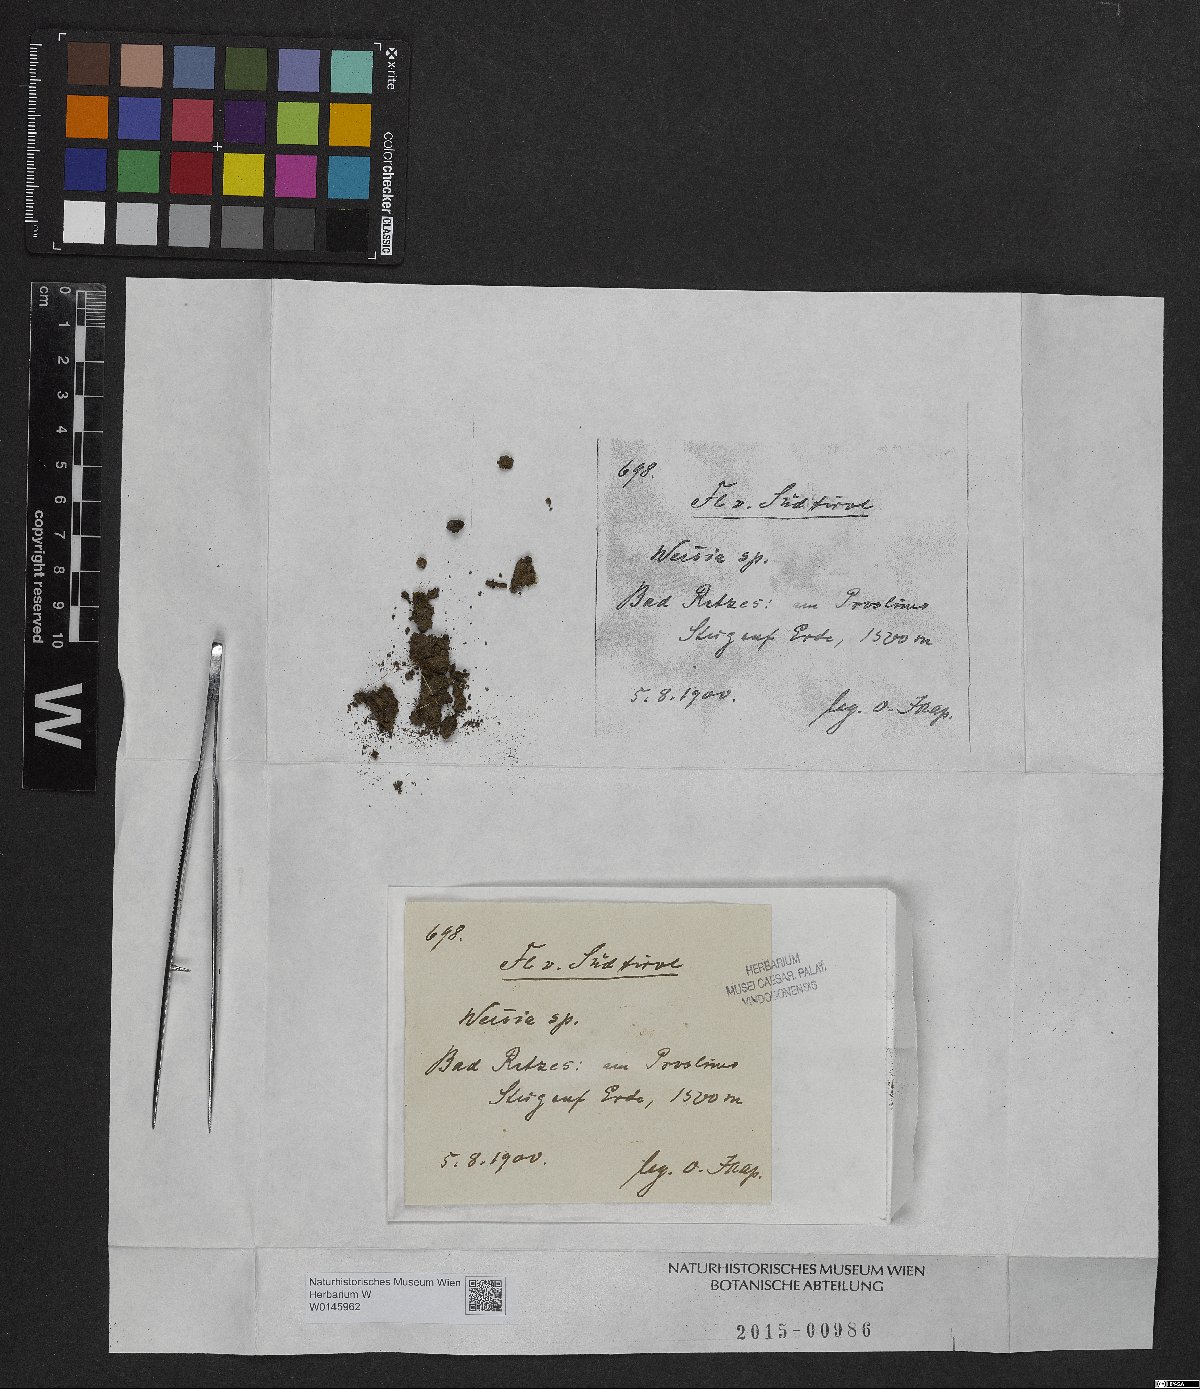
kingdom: Plantae
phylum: Bryophyta
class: Bryopsida
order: Pottiales
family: Pottiaceae
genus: Weissia
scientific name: Weissia
